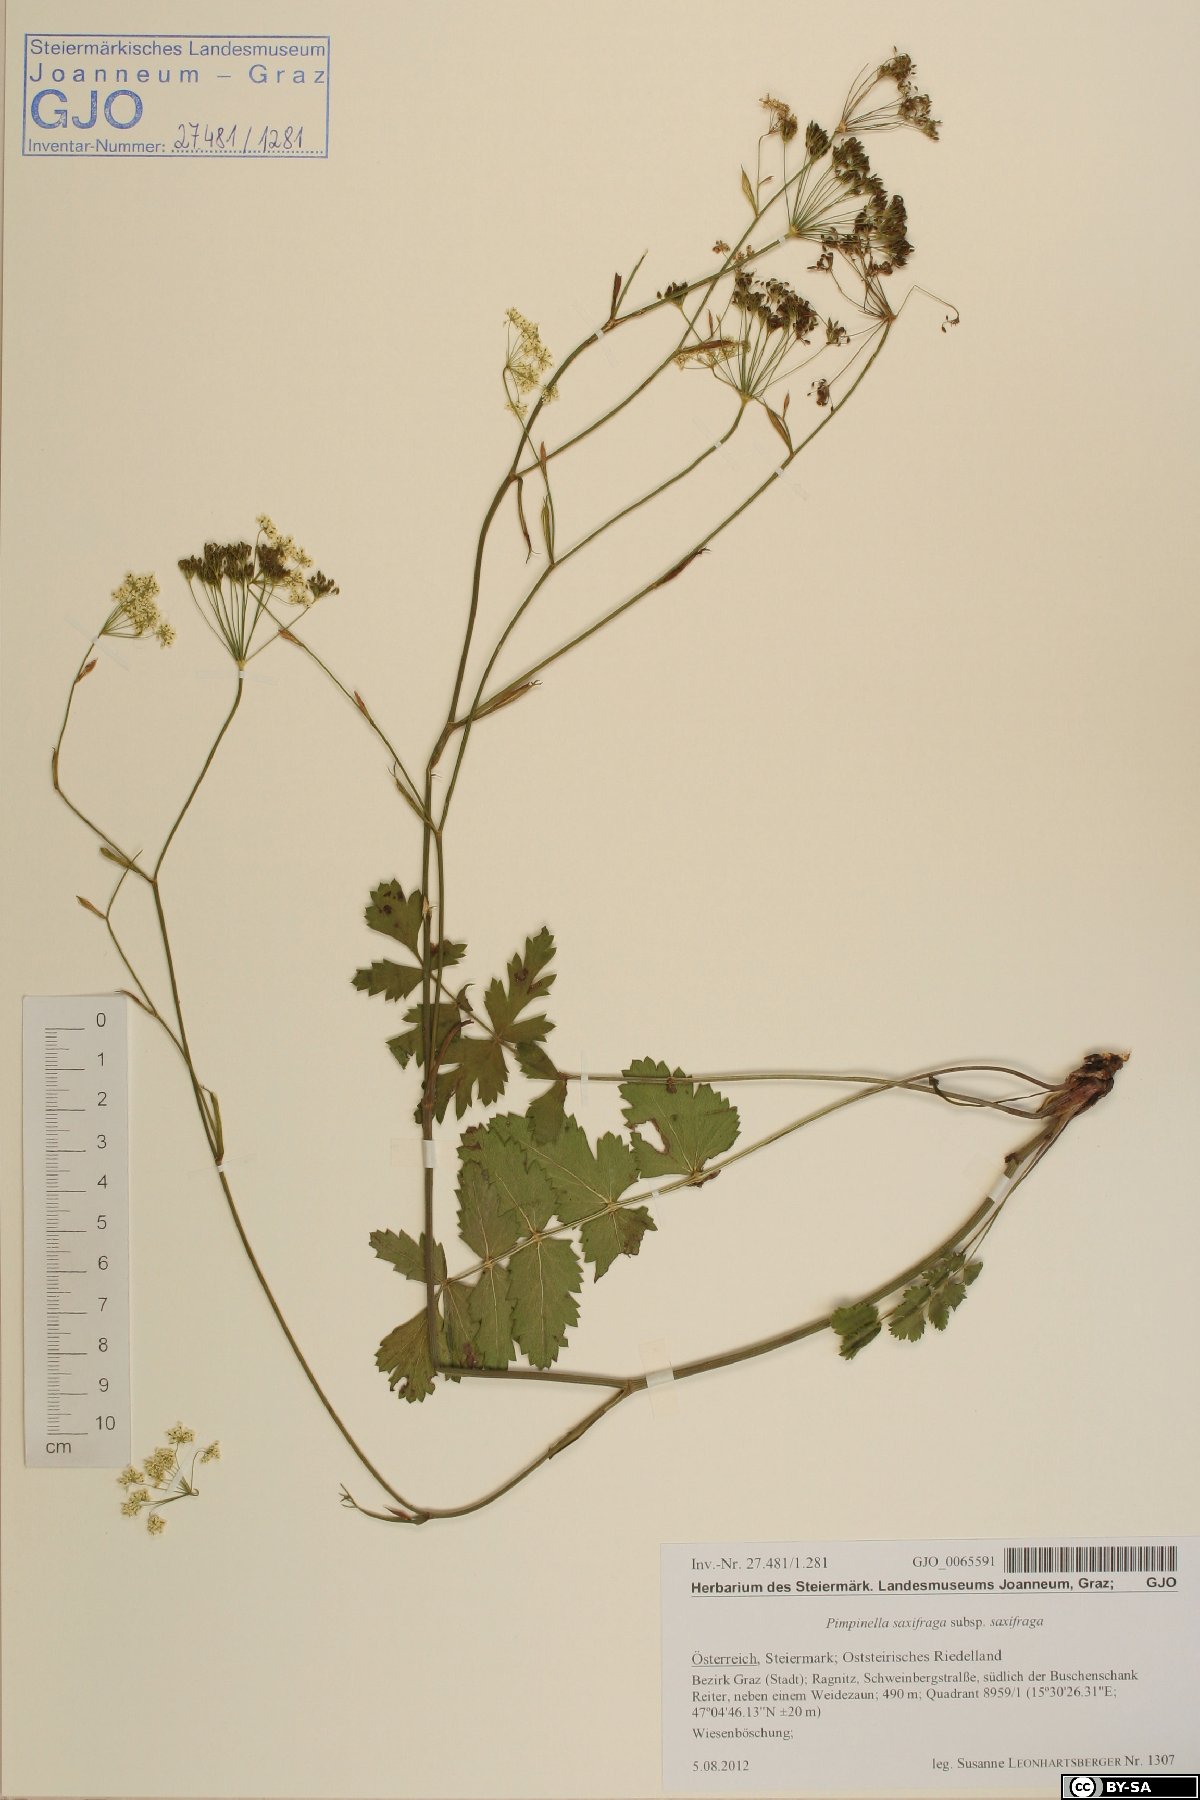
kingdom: Plantae
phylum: Tracheophyta
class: Magnoliopsida
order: Apiales
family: Apiaceae
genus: Pimpinella
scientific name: Pimpinella saxifraga
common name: Burnet-saxifrage
